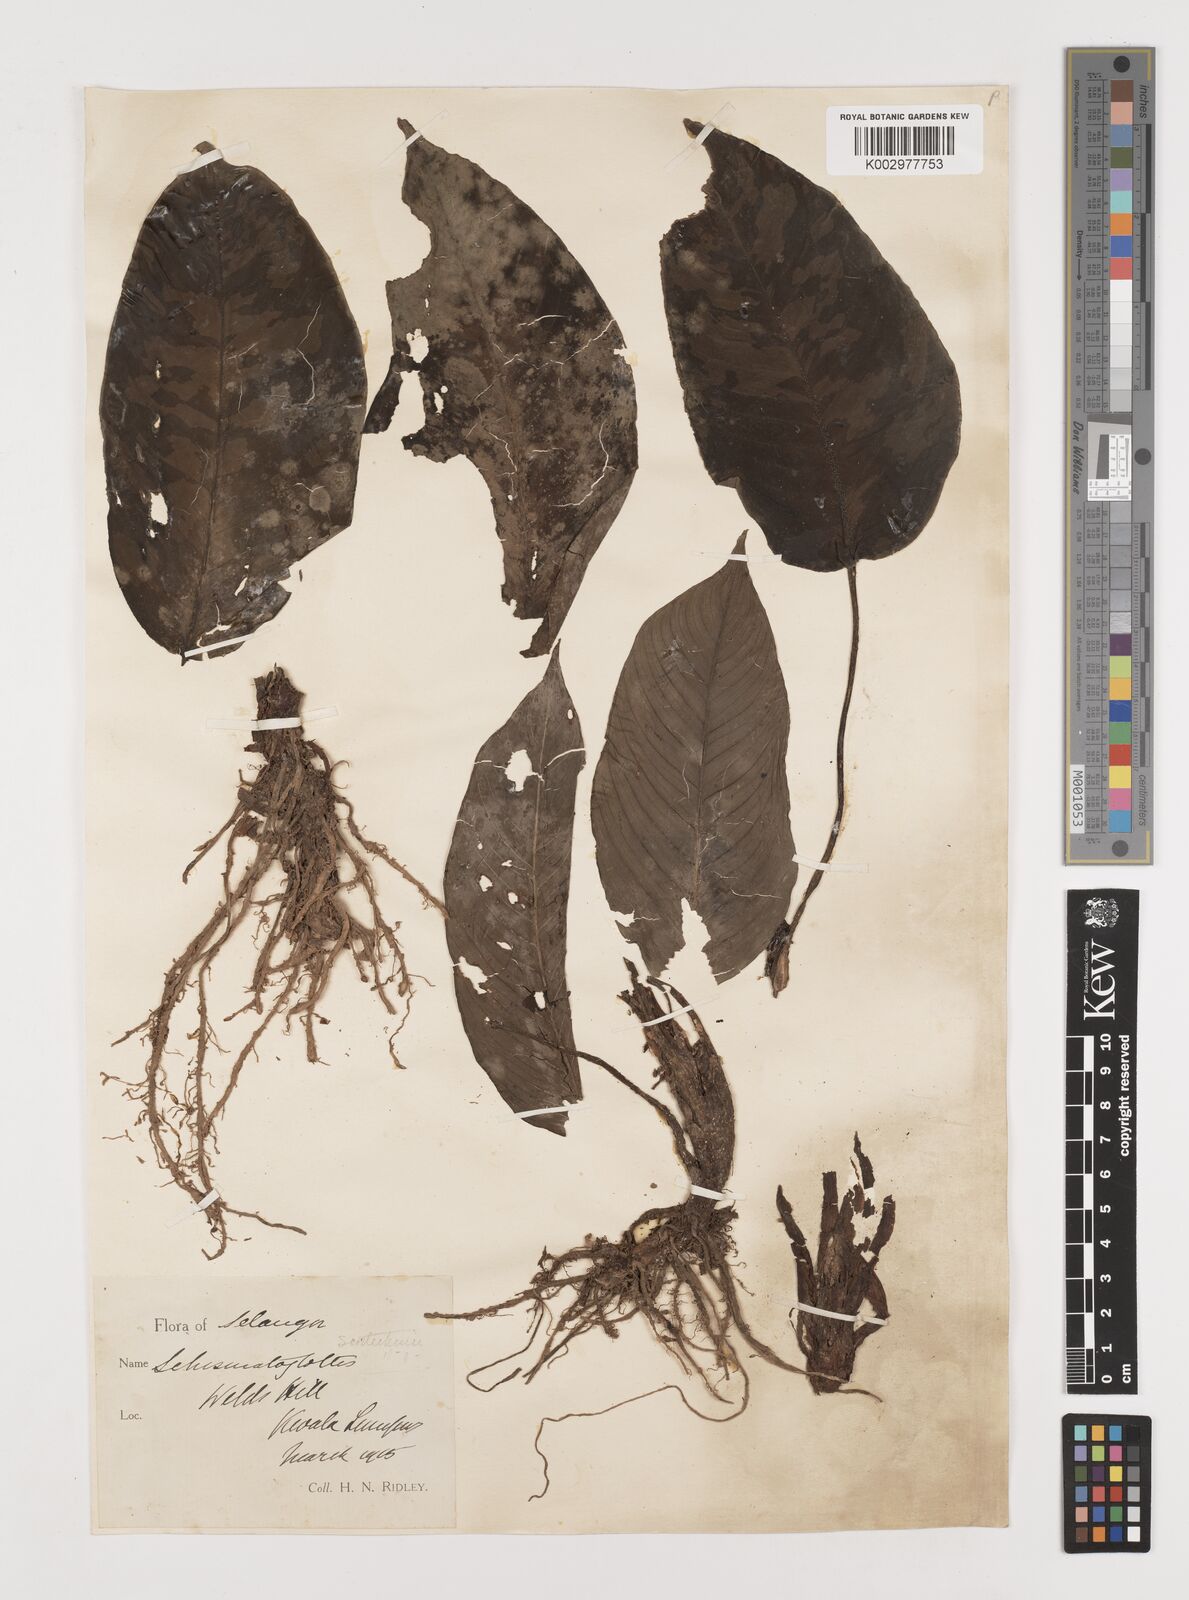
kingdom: Plantae
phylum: Tracheophyta
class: Liliopsida
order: Alismatales
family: Araceae
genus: Schismatoglottis
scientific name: Schismatoglottis scortechinii
